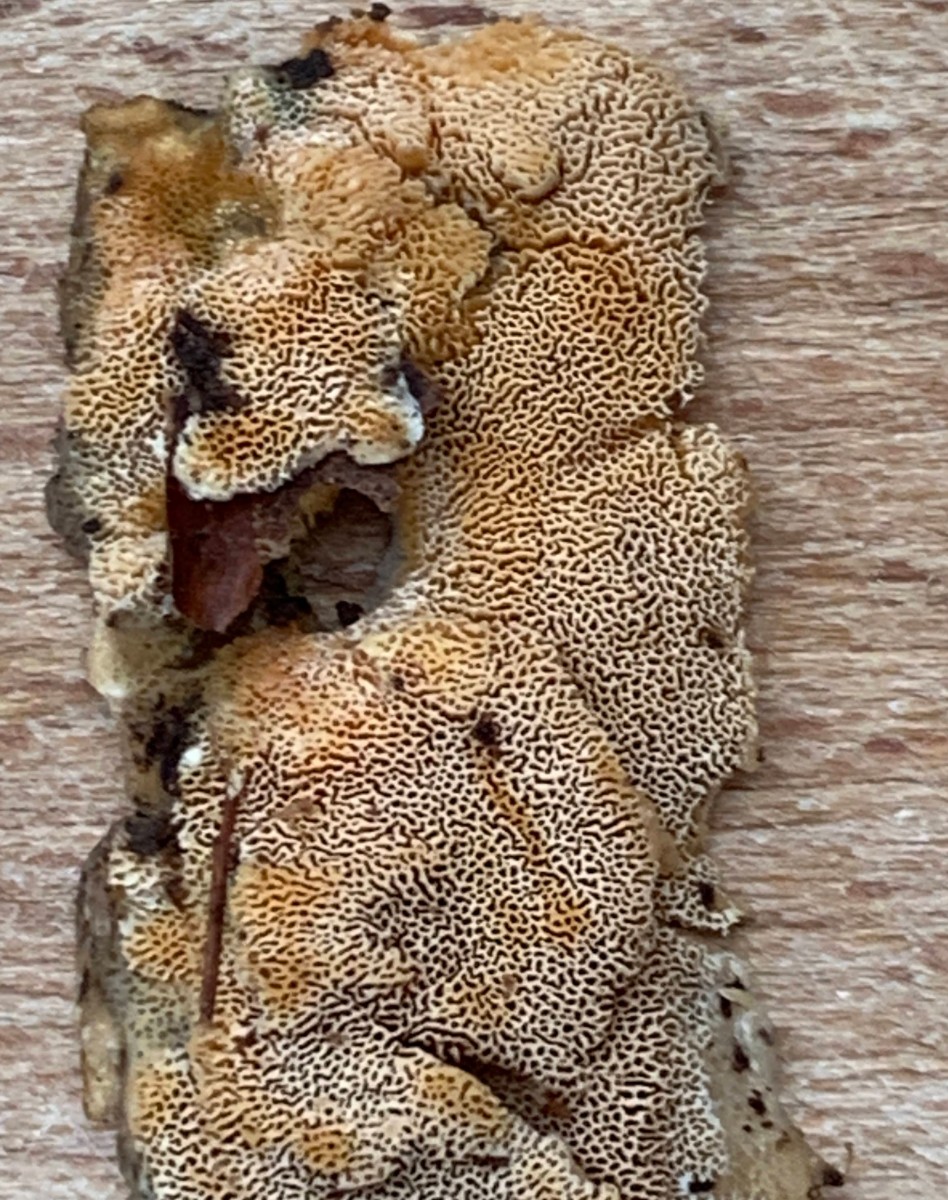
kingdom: Fungi
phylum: Basidiomycota
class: Agaricomycetes
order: Hymenochaetales
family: Schizoporaceae
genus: Xylodon
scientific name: Xylodon flaviporus
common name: gulporet tandsvamp
